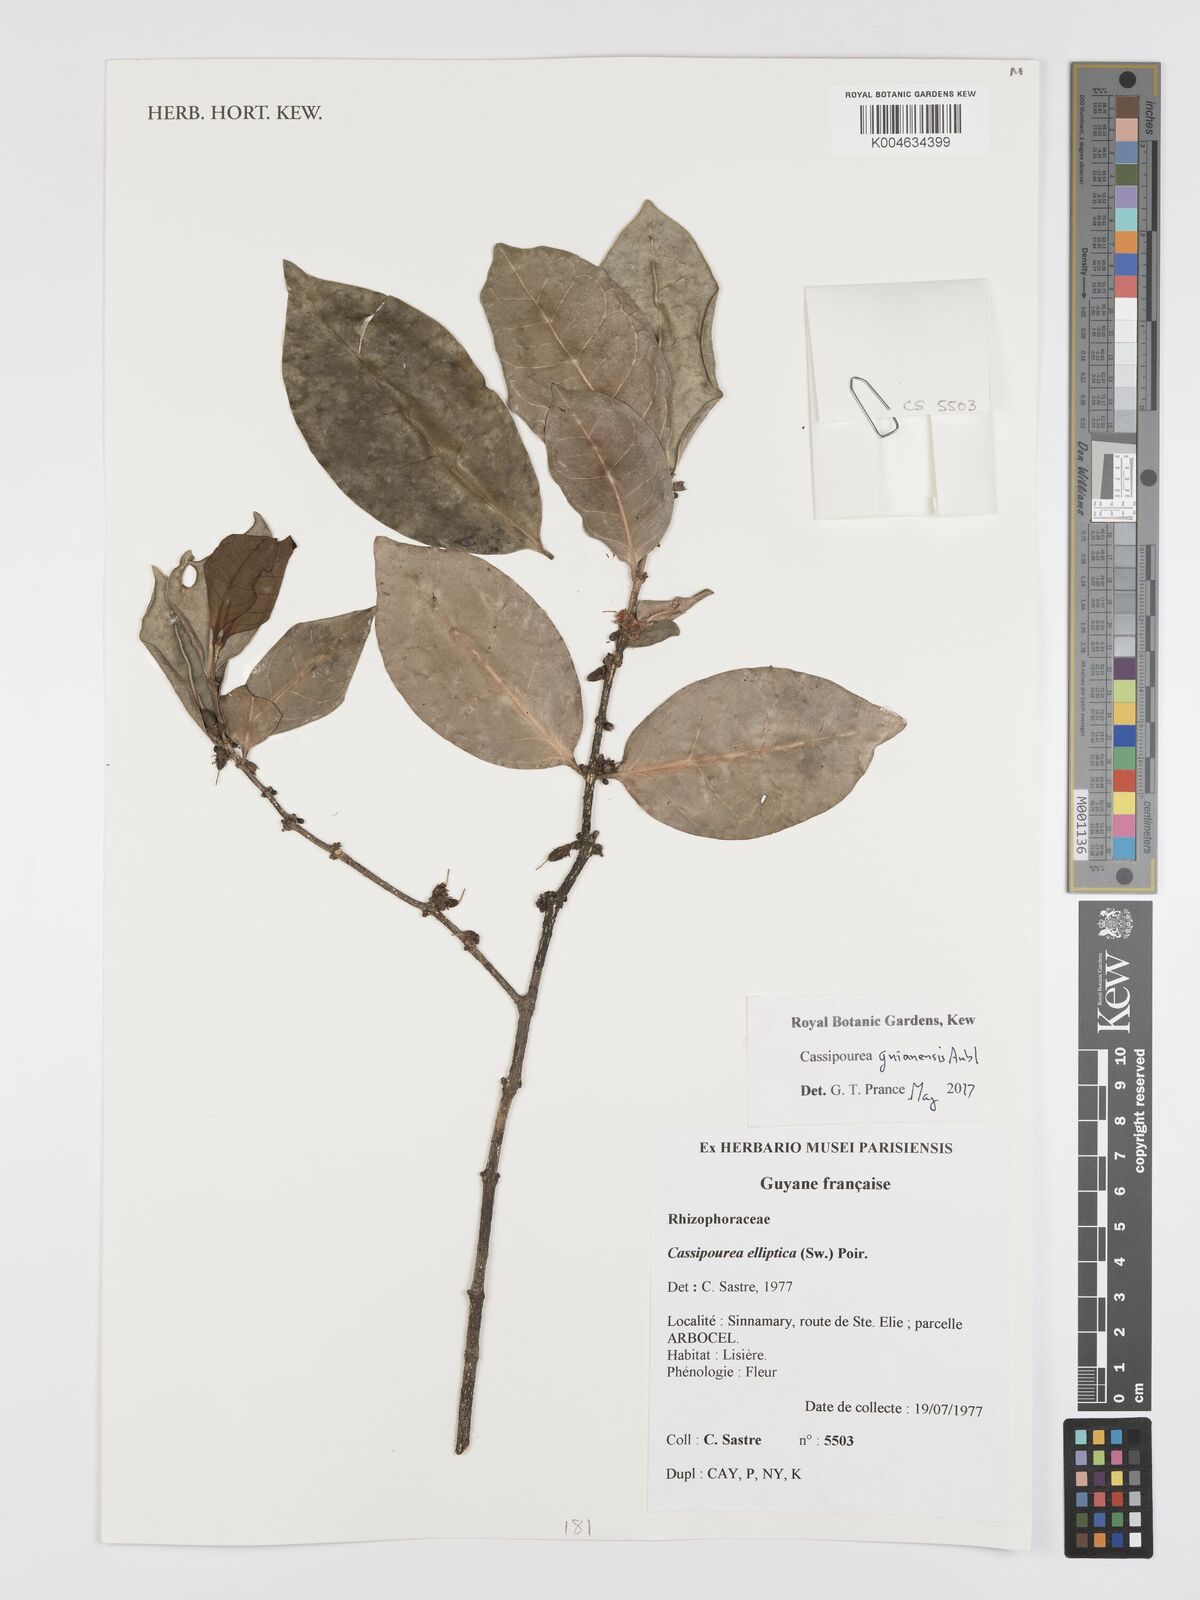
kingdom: Plantae
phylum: Tracheophyta
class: Magnoliopsida
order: Malpighiales
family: Rhizophoraceae
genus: Cassipourea
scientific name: Cassipourea guianensis
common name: Bastard waterwood
